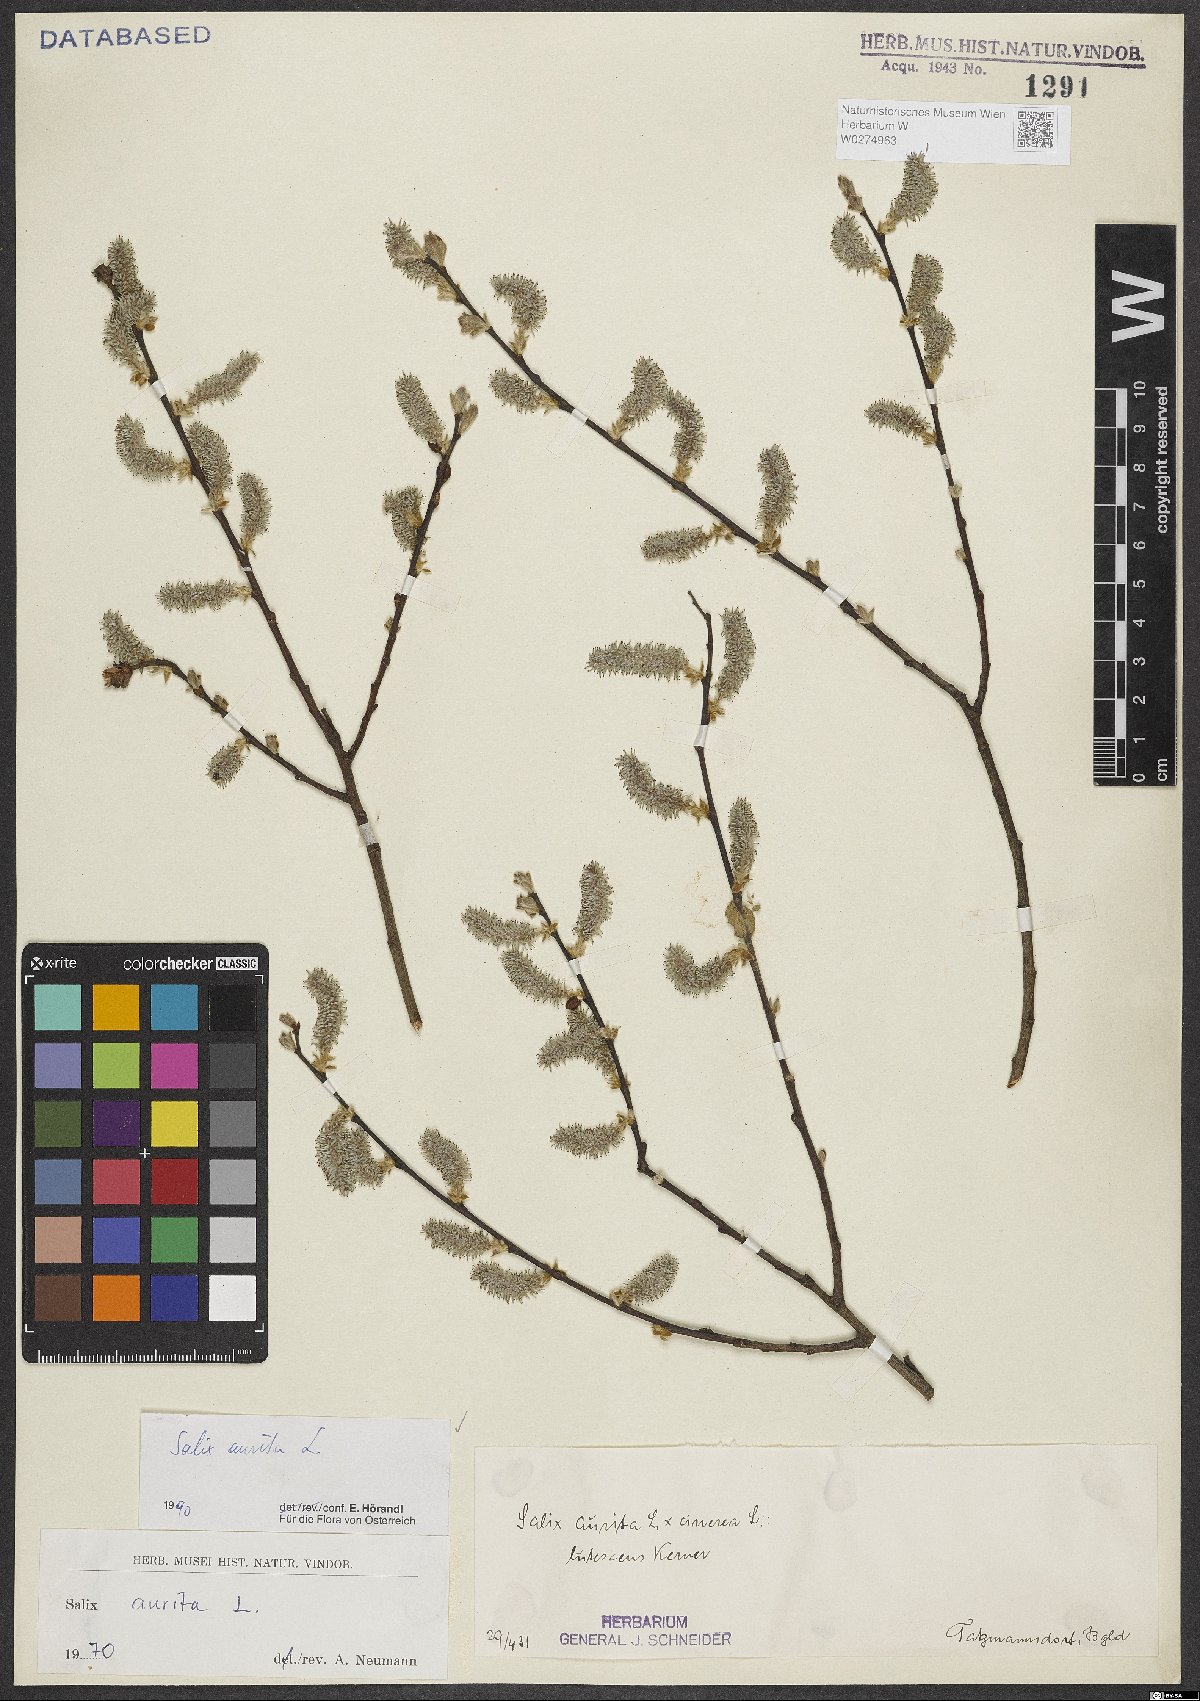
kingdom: Plantae
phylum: Tracheophyta
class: Magnoliopsida
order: Malpighiales
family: Salicaceae
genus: Salix
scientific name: Salix aurita
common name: Eared willow
